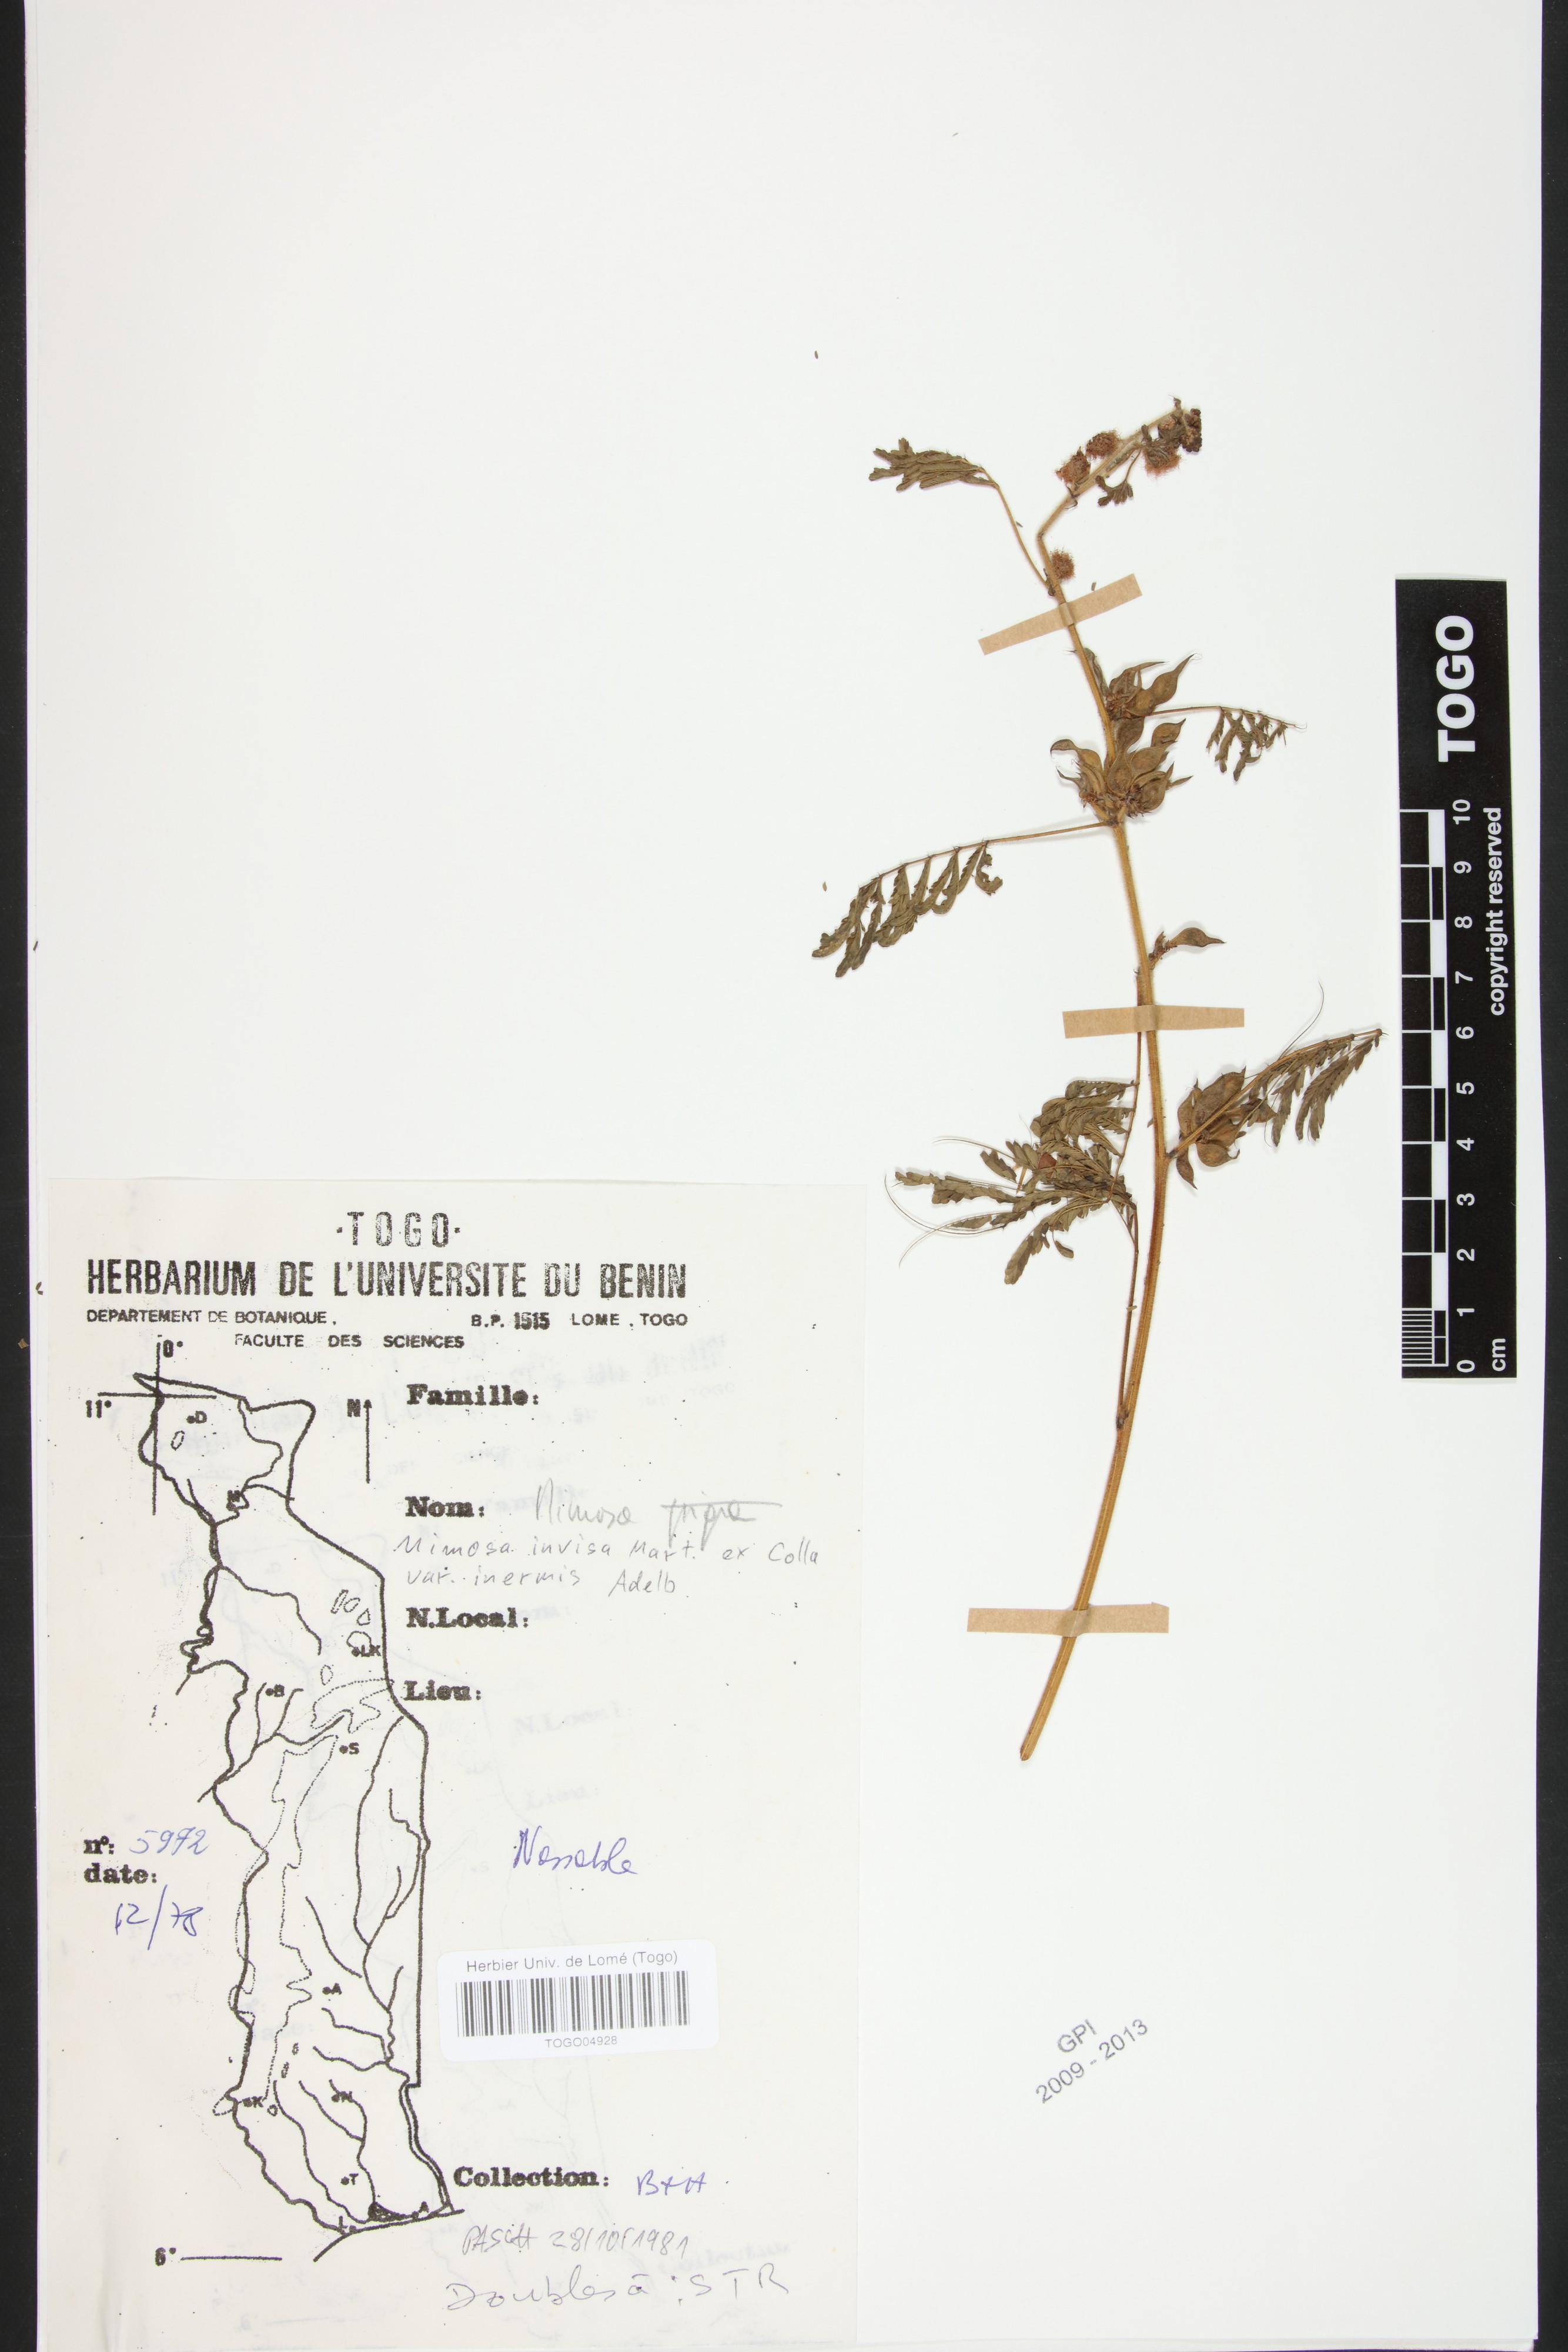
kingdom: Plantae
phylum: Tracheophyta
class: Magnoliopsida
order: Fabales
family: Fabaceae
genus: Mimosa
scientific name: Mimosa diplotricha
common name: Giant sensitive-plant
